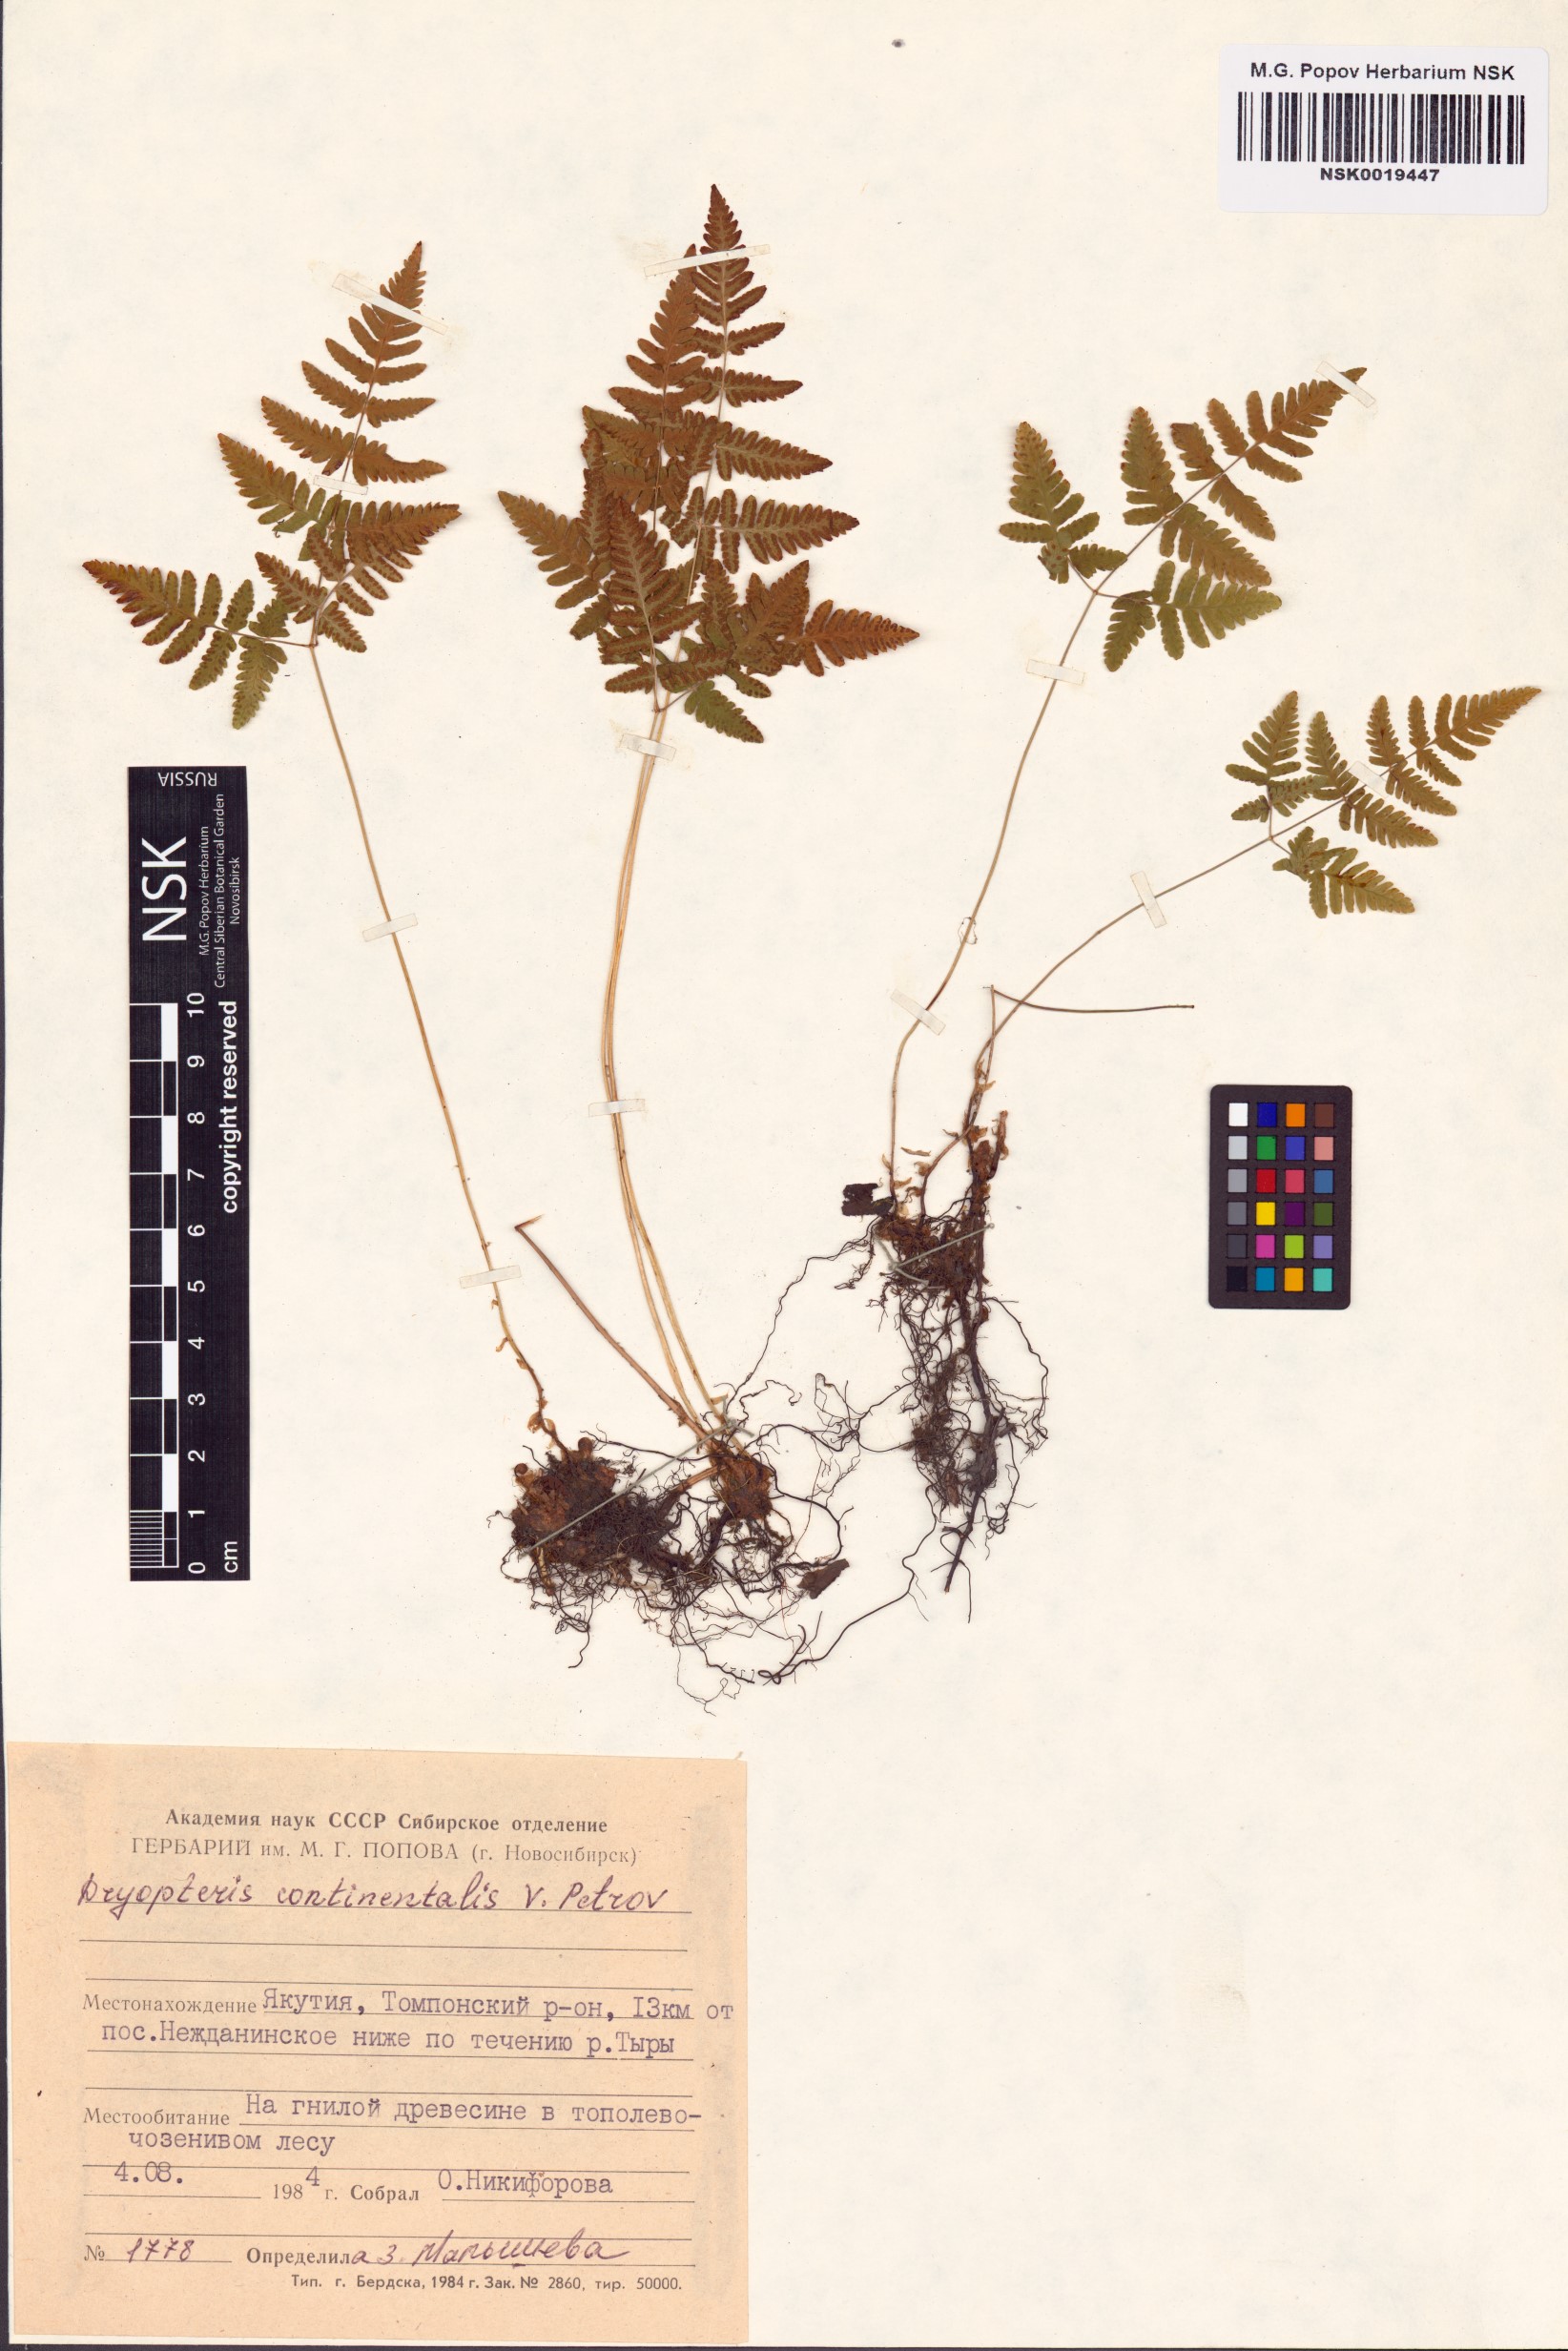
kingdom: Plantae
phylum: Tracheophyta
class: Polypodiopsida
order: Polypodiales
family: Cystopteridaceae
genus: Gymnocarpium
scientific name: Gymnocarpium continentale
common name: Asian oak fern
